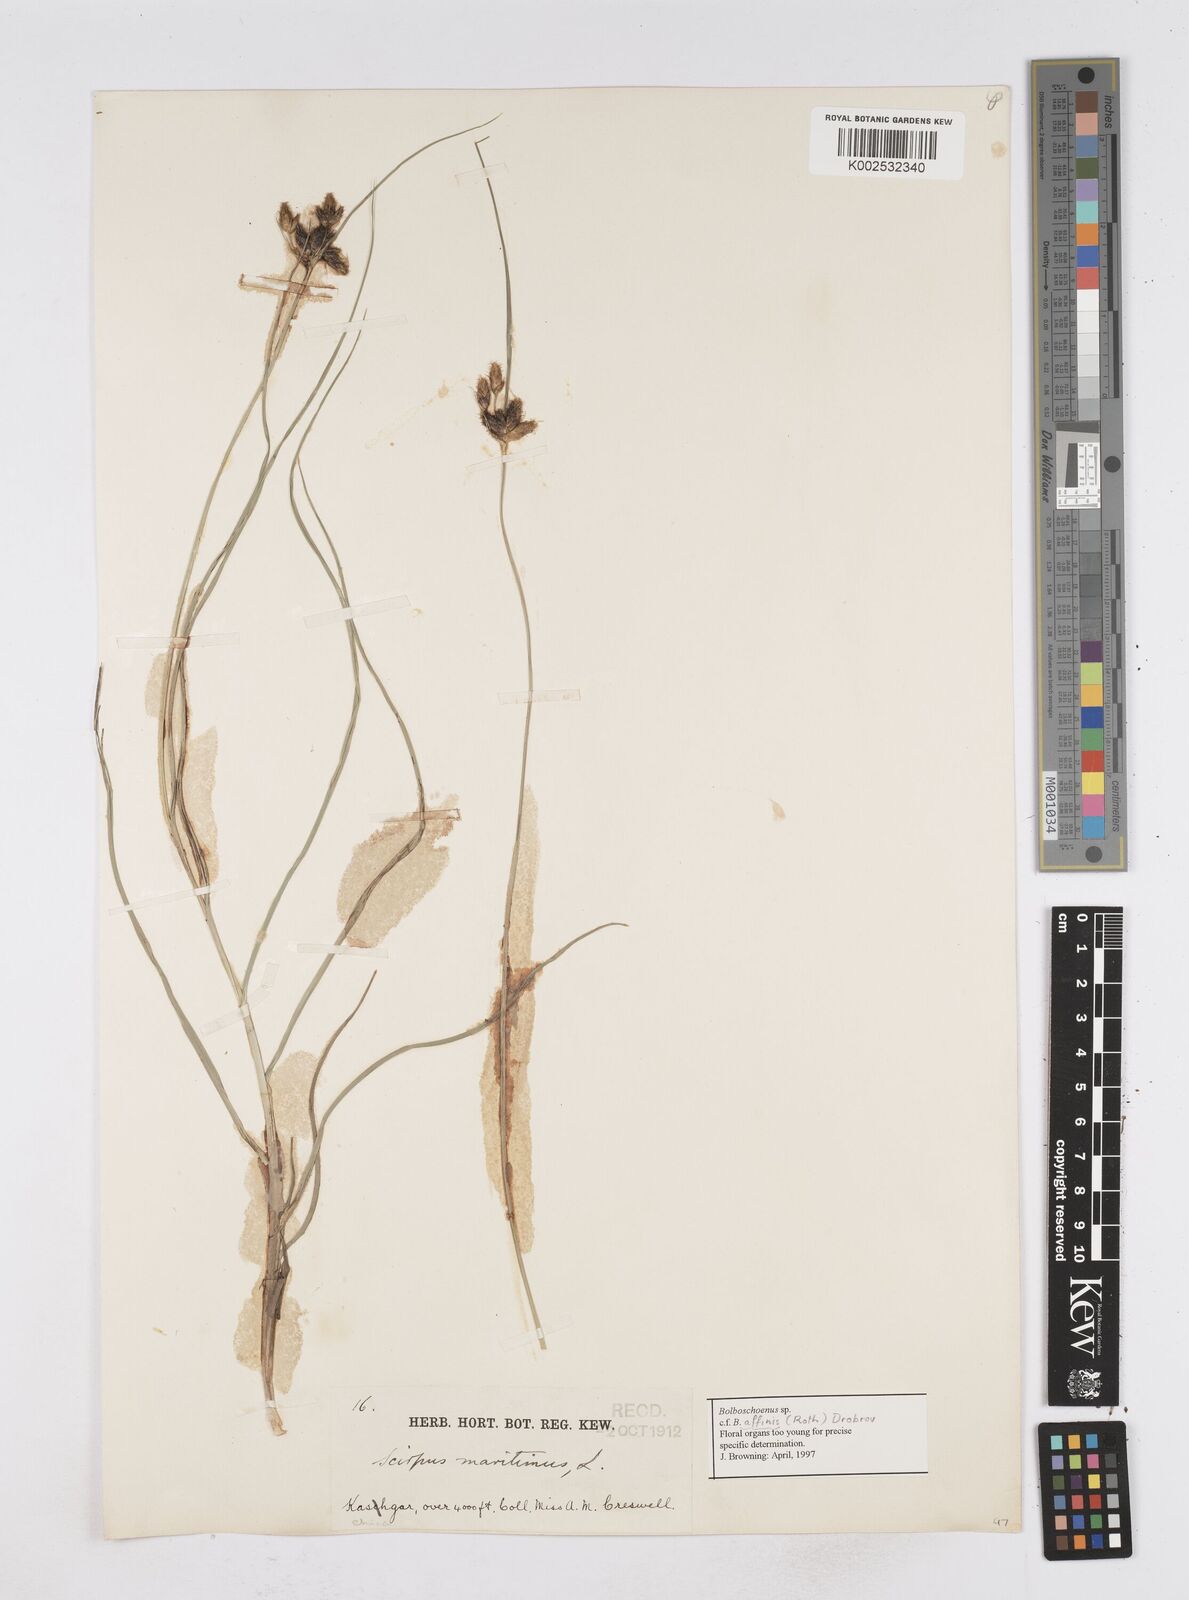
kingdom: Plantae
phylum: Tracheophyta
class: Liliopsida
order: Poales
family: Cyperaceae
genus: Bolboschoenus
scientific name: Bolboschoenus maritimus
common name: Sea club-rush
